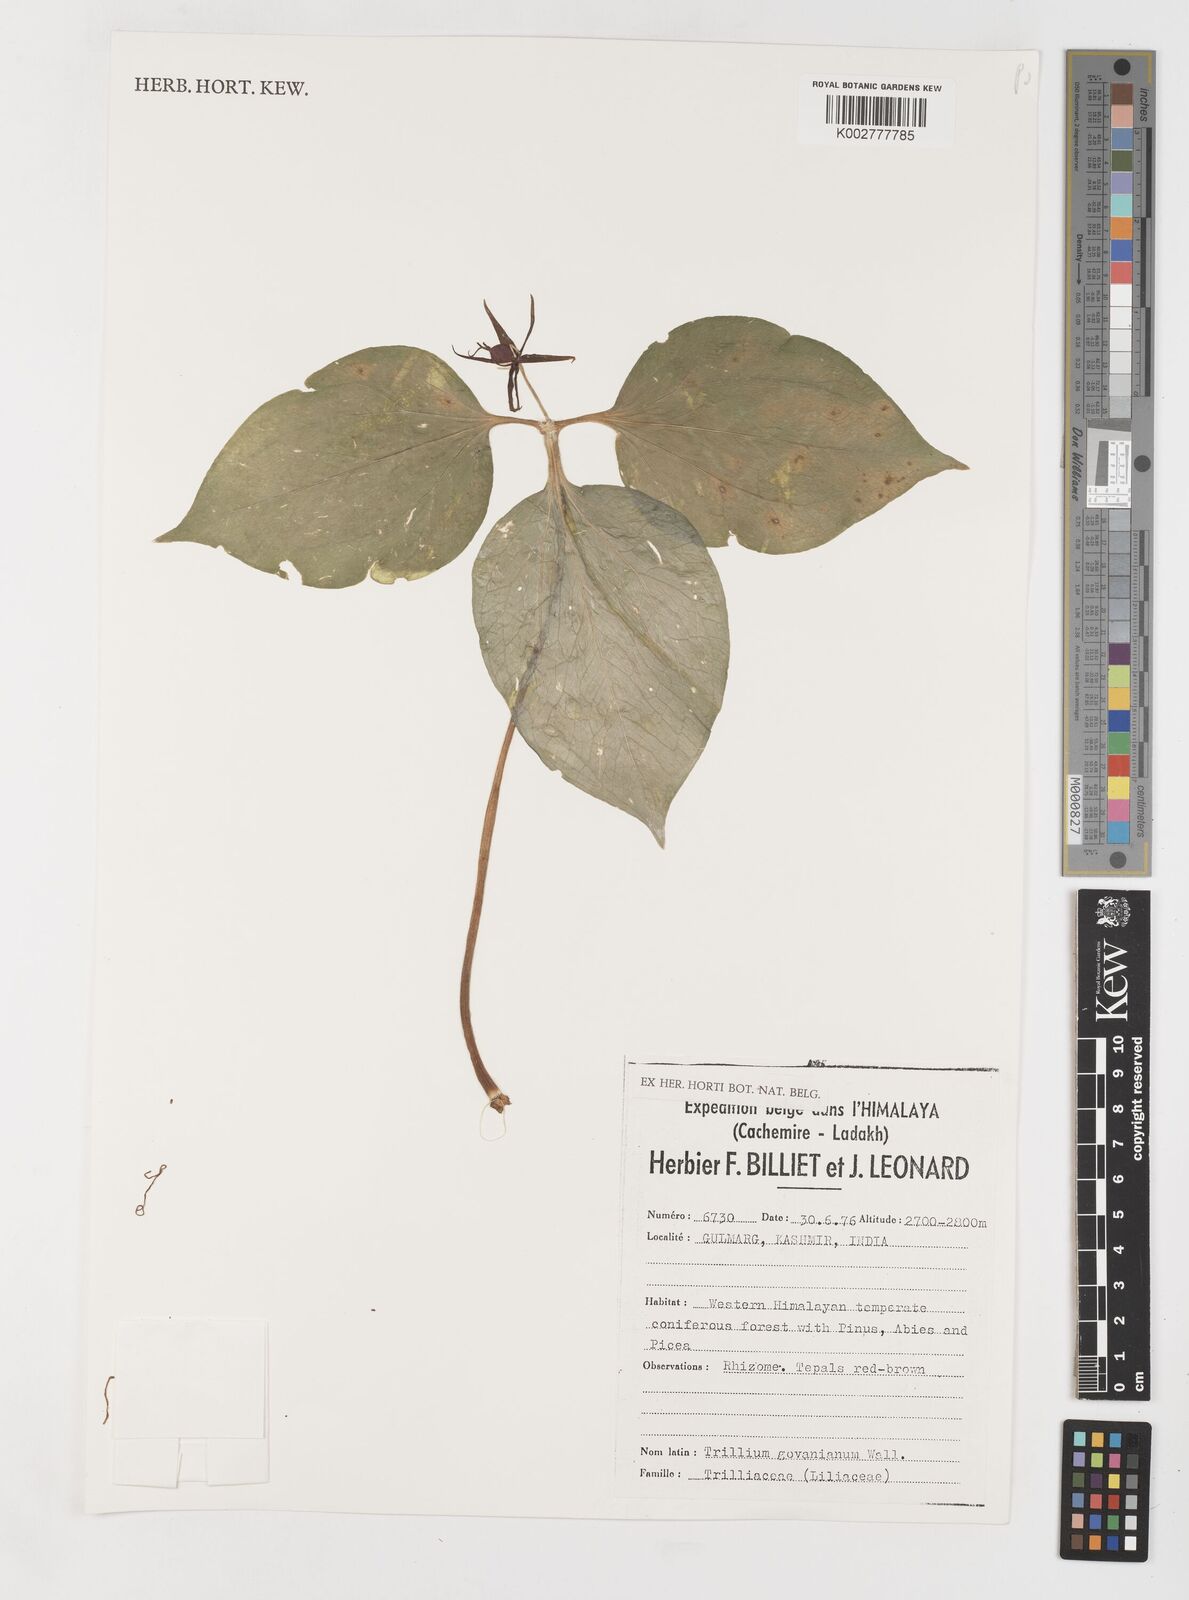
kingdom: Plantae
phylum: Tracheophyta
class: Liliopsida
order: Liliales
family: Melanthiaceae
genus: Trillium
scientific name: Trillium govanianum
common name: Himalayan trillium
